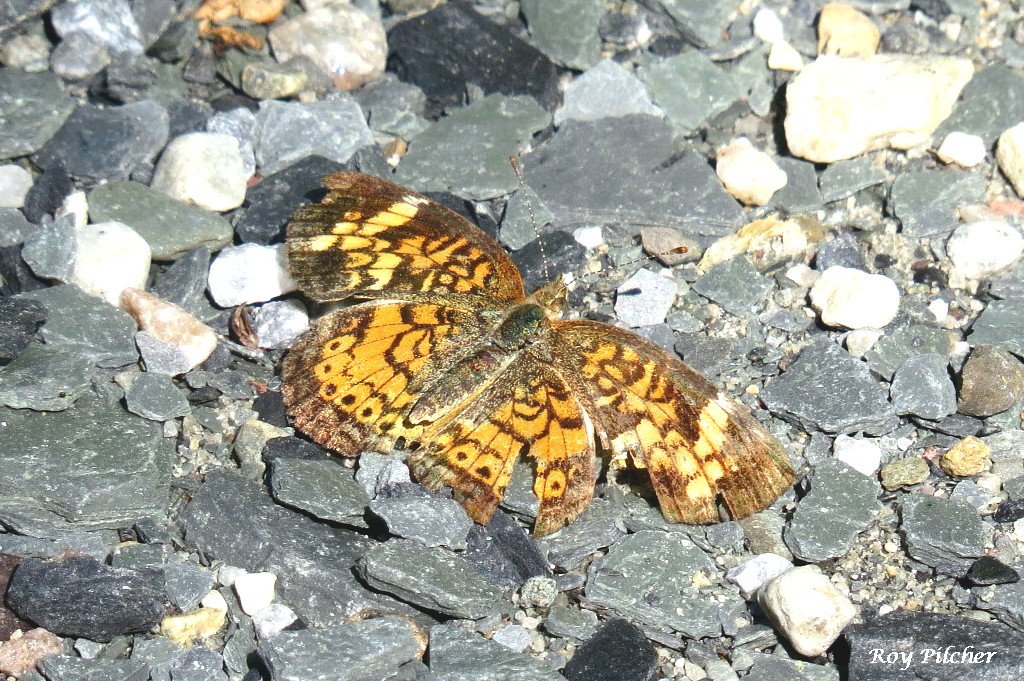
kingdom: Animalia
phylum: Arthropoda
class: Insecta
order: Lepidoptera
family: Nymphalidae
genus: Phyciodes
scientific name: Phyciodes tharos
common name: Pearl Crescent
